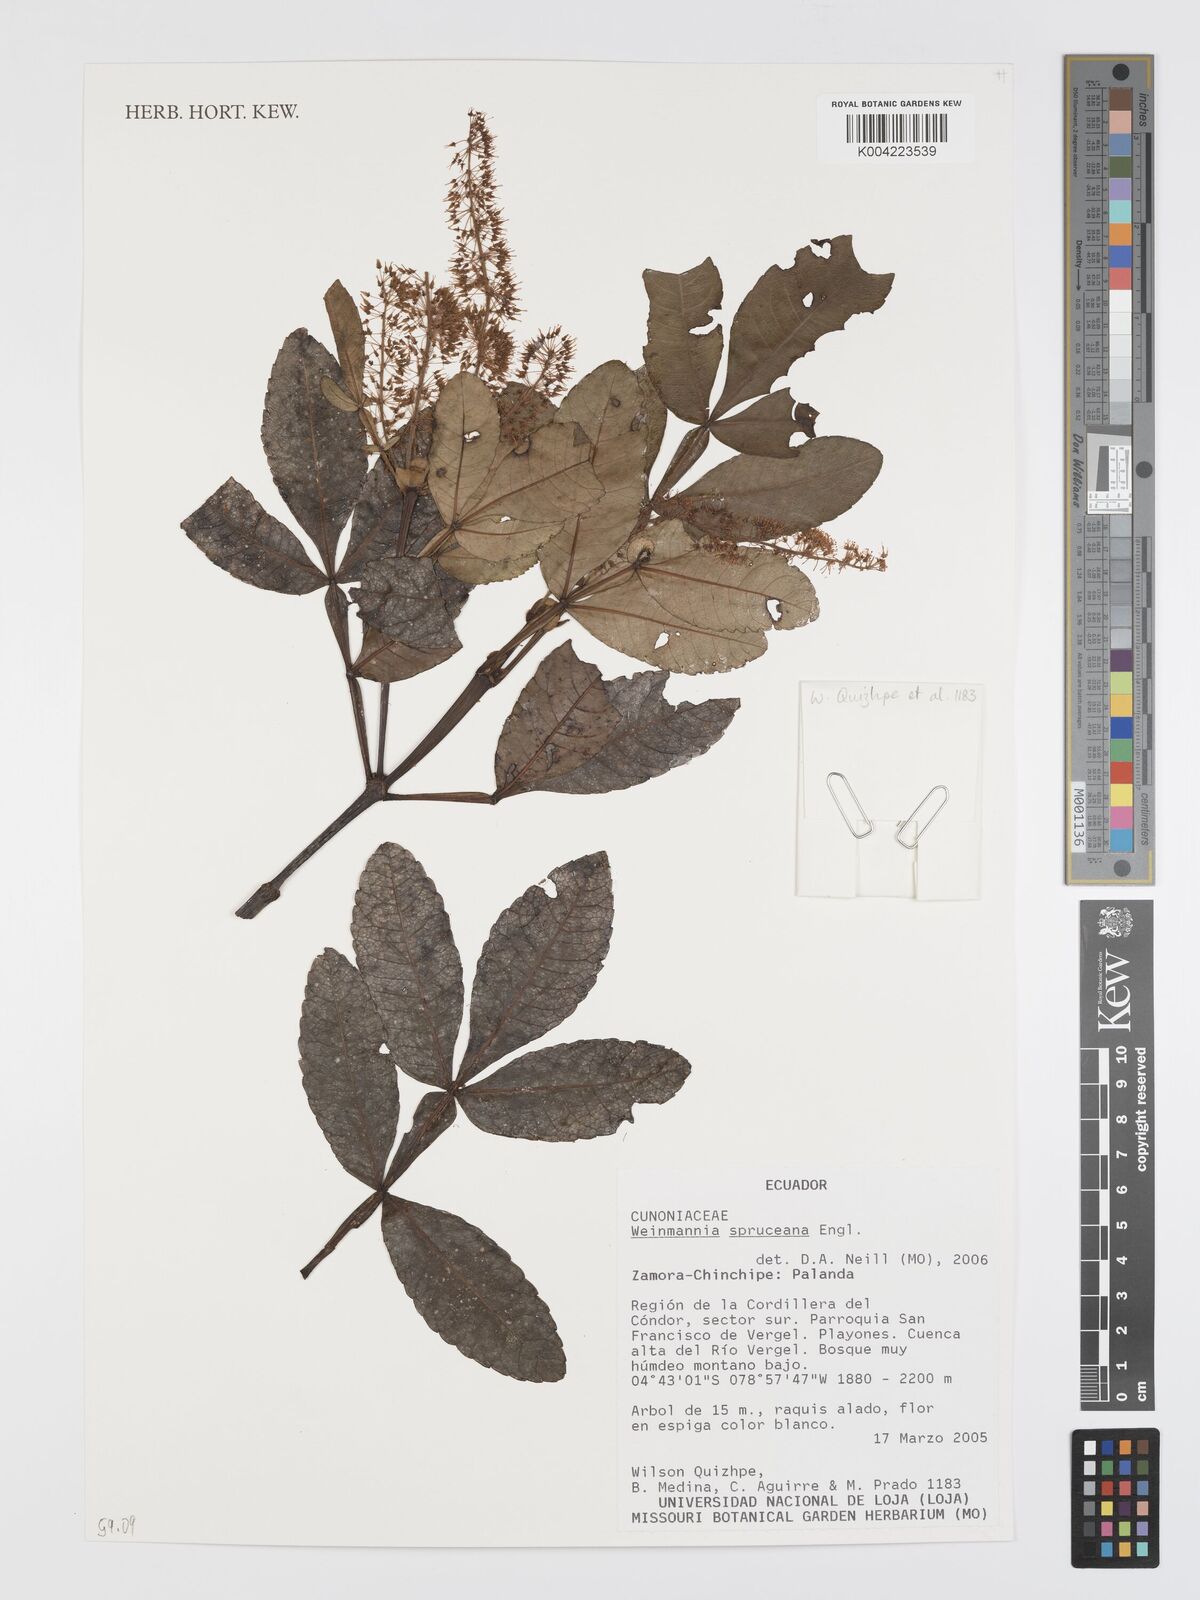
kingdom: Plantae
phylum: Tracheophyta
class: Magnoliopsida
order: Oxalidales
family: Cunoniaceae
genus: Weinmannia
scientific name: Weinmannia spruceana
